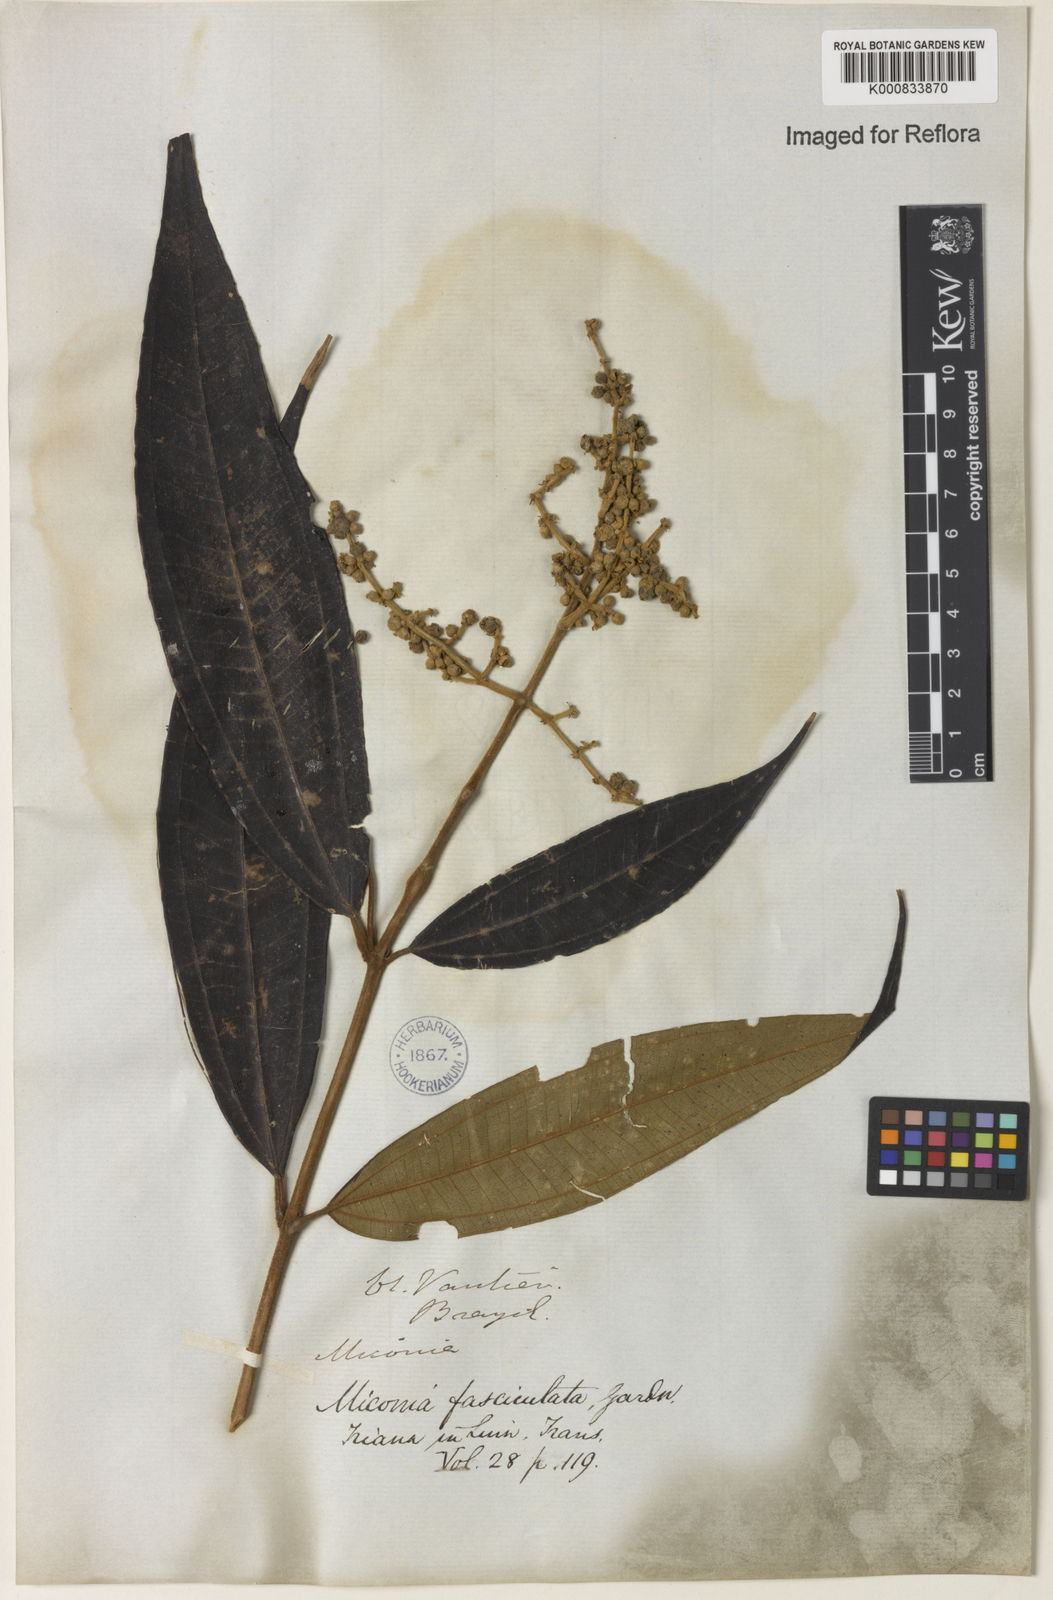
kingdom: Plantae
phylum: Tracheophyta
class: Magnoliopsida
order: Myrtales
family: Melastomataceae
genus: Miconia
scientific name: Miconia fasciculata
